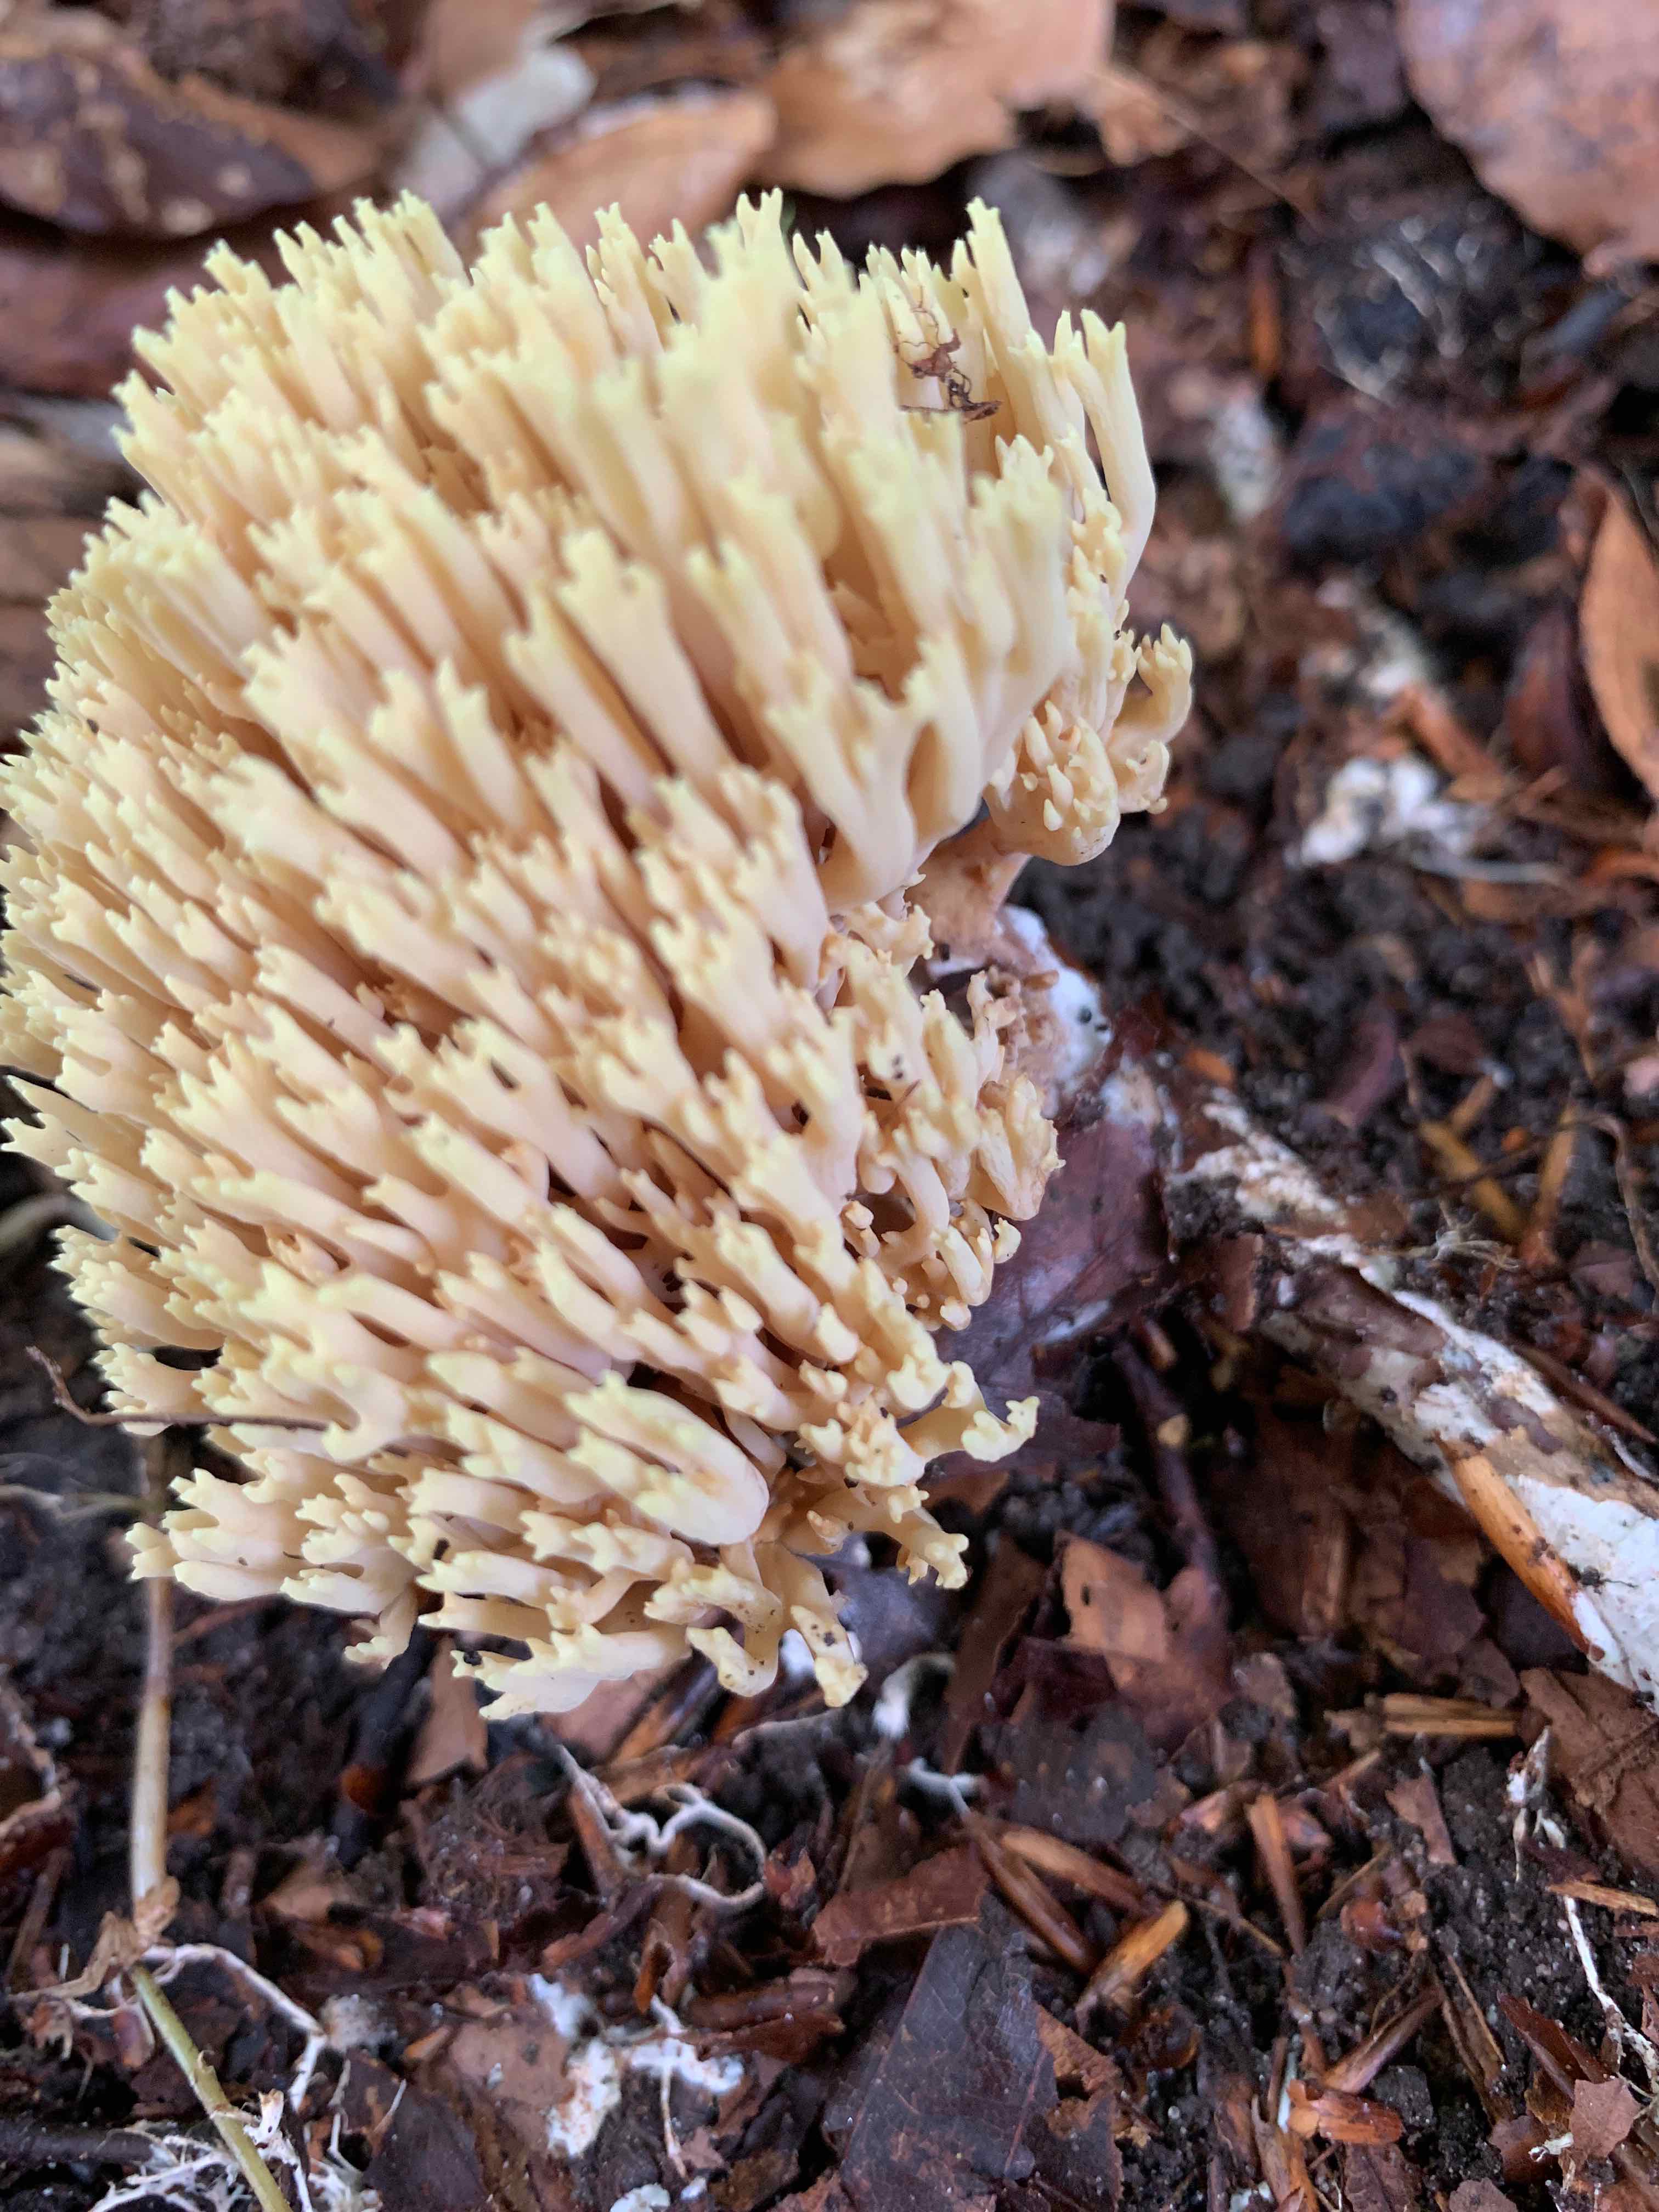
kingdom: Fungi
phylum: Basidiomycota
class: Agaricomycetes
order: Gomphales
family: Gomphaceae
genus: Ramaria
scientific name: Ramaria stricta
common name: rank koralsvamp
